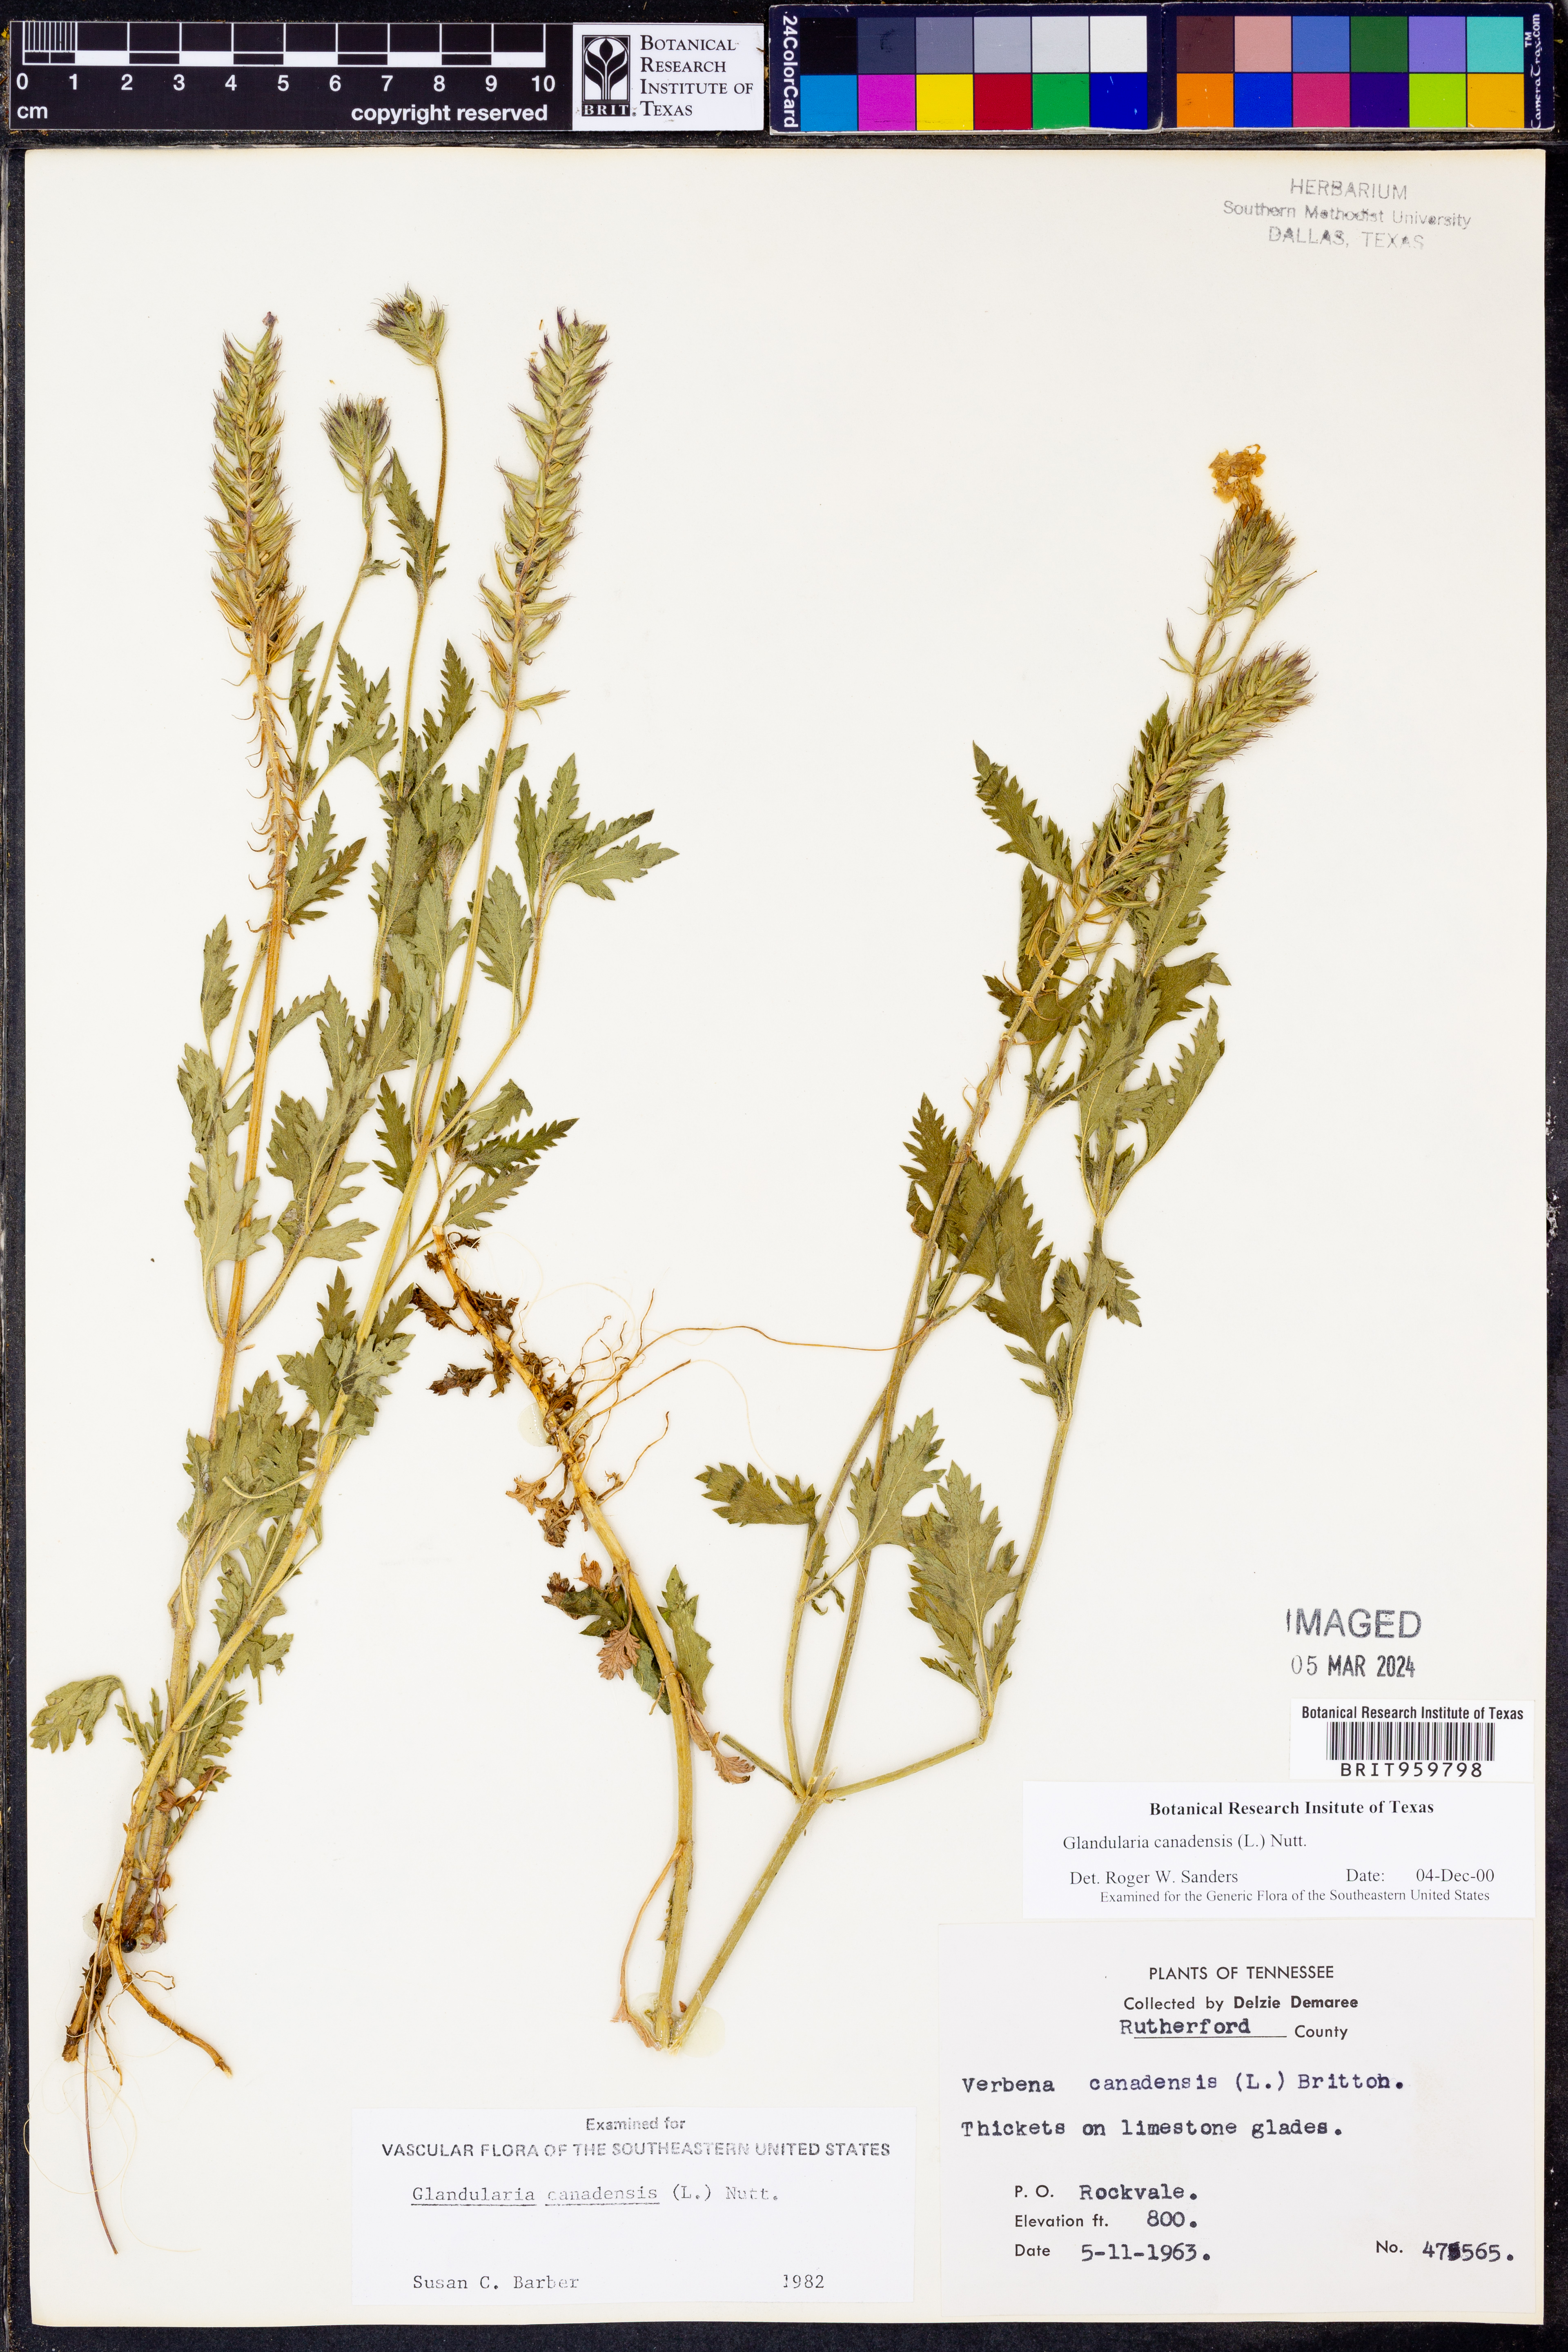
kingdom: Plantae
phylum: Tracheophyta
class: Magnoliopsida
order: Lamiales
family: Verbenaceae
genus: Verbena
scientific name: Verbena canadensis
